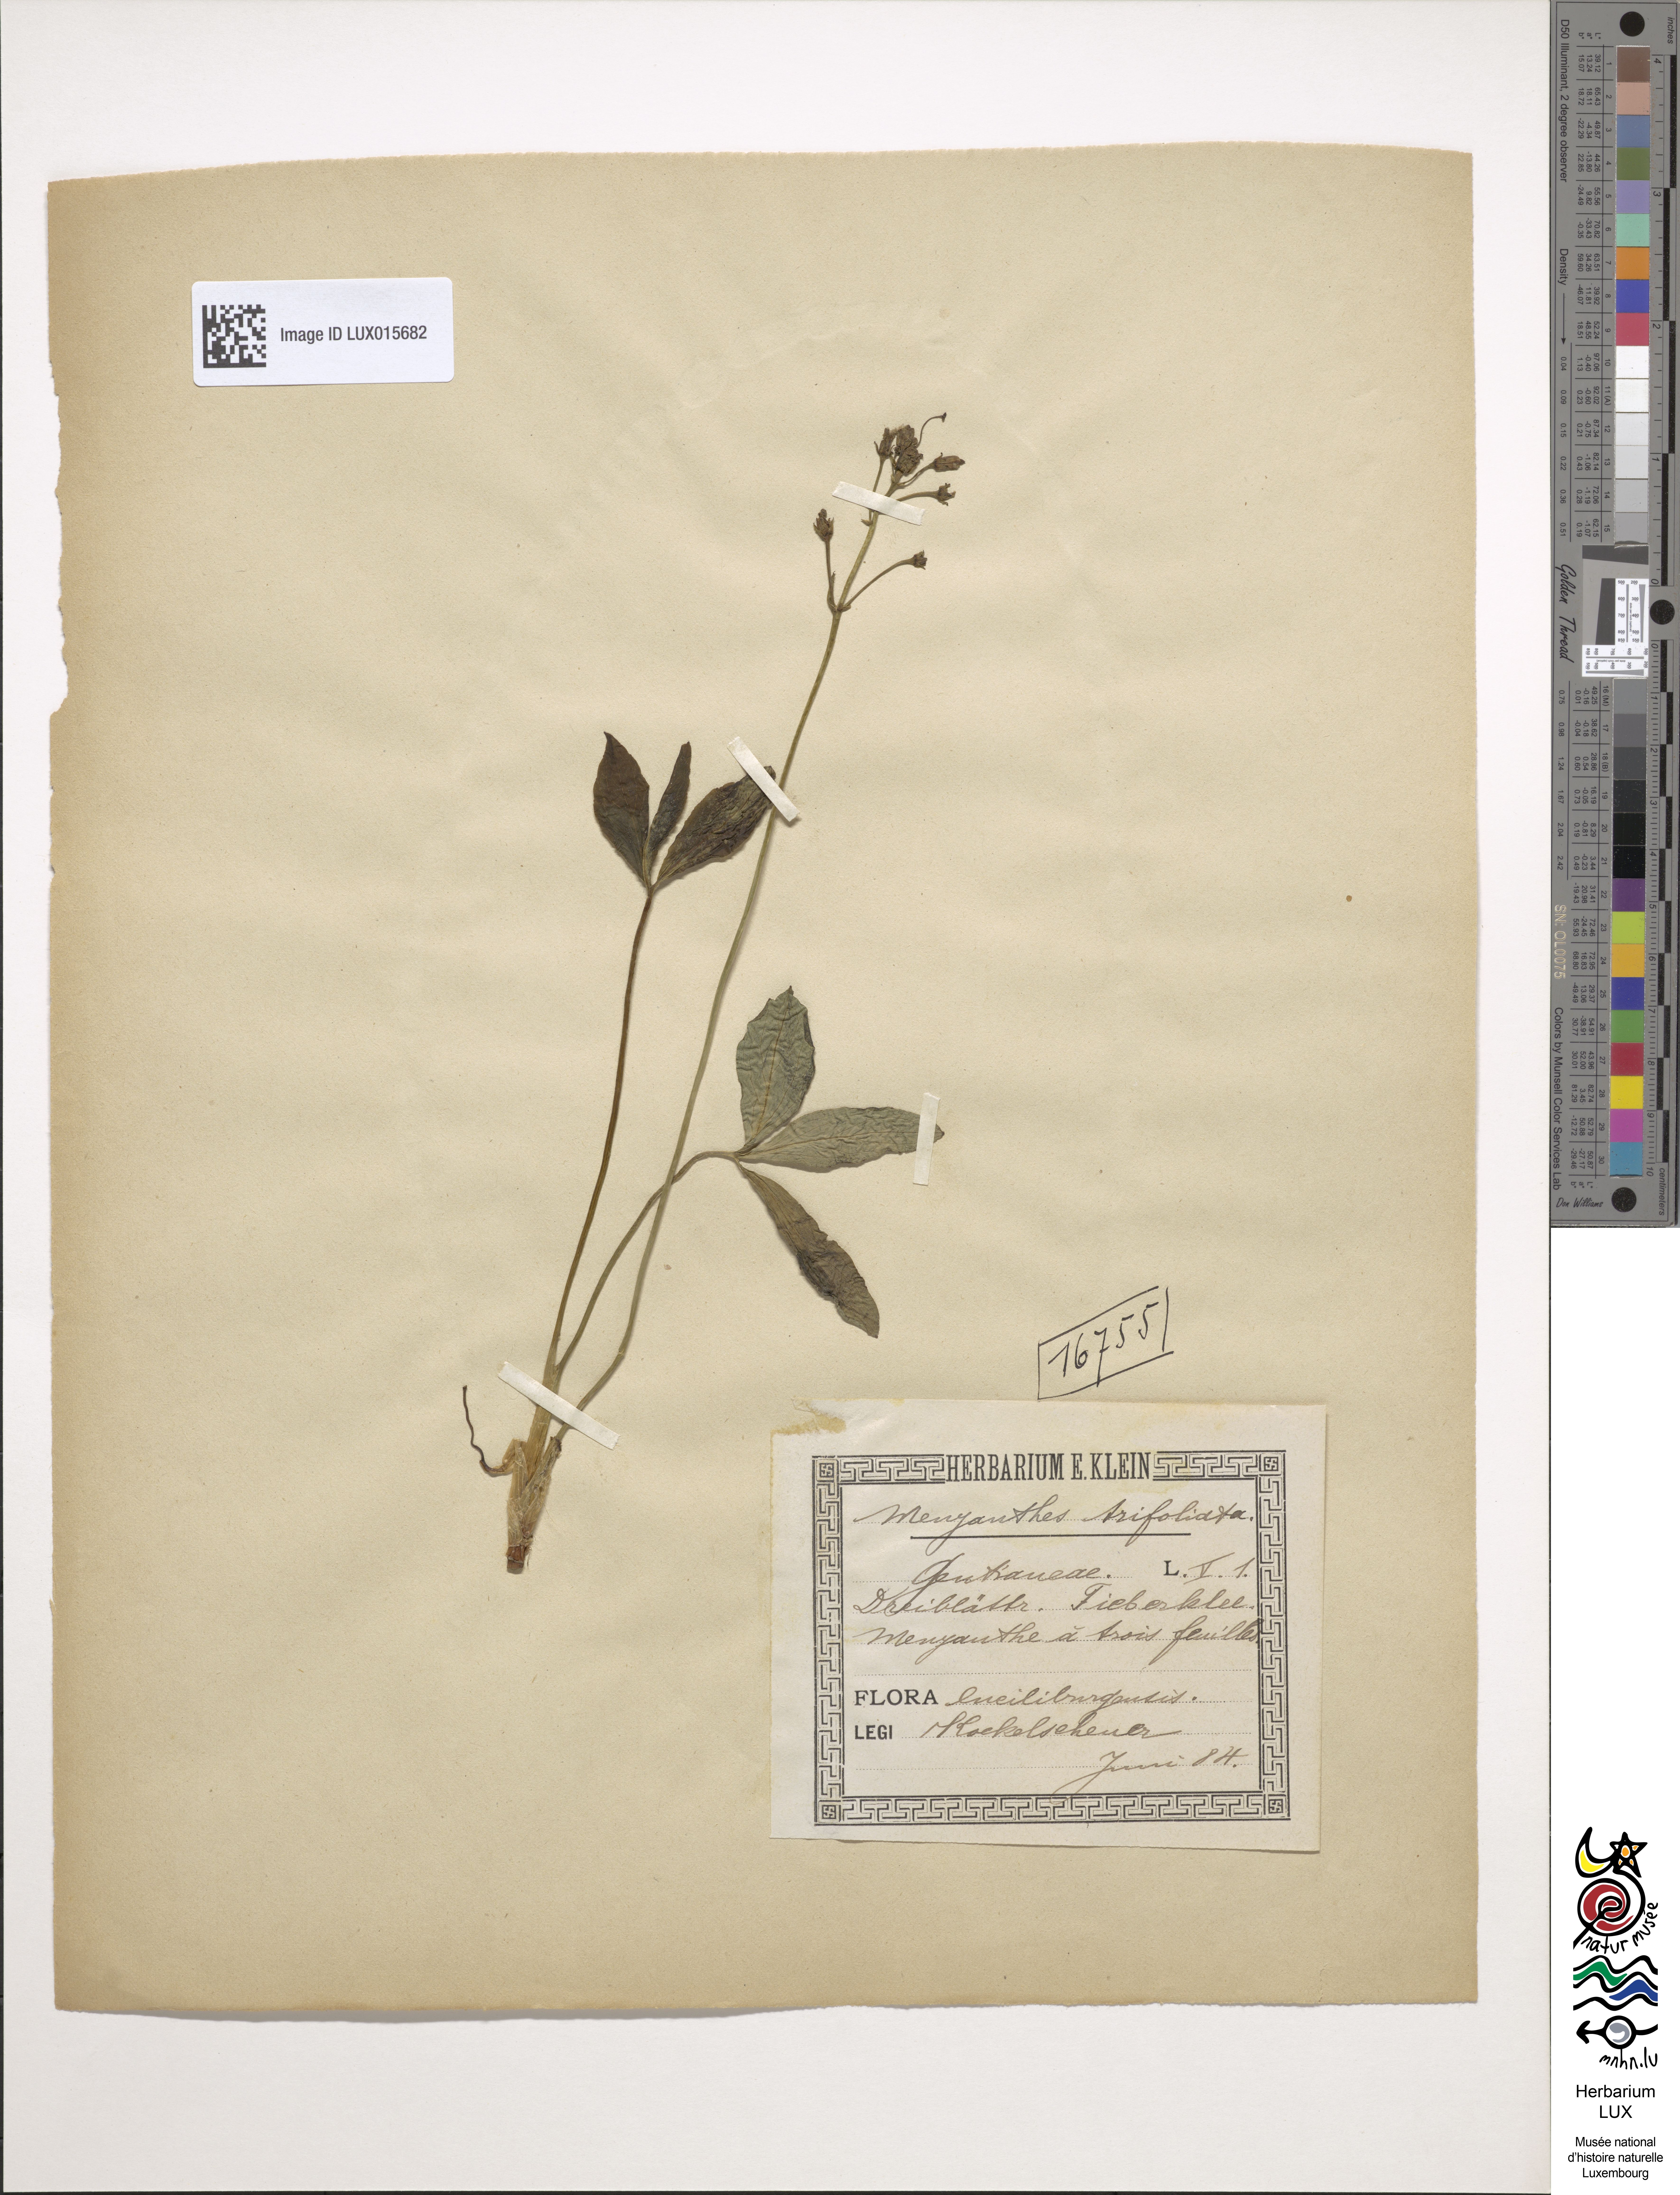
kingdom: Plantae
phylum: Tracheophyta
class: Magnoliopsida
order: Asterales
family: Menyanthaceae
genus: Menyanthes
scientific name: Menyanthes trifoliata
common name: Bogbean
